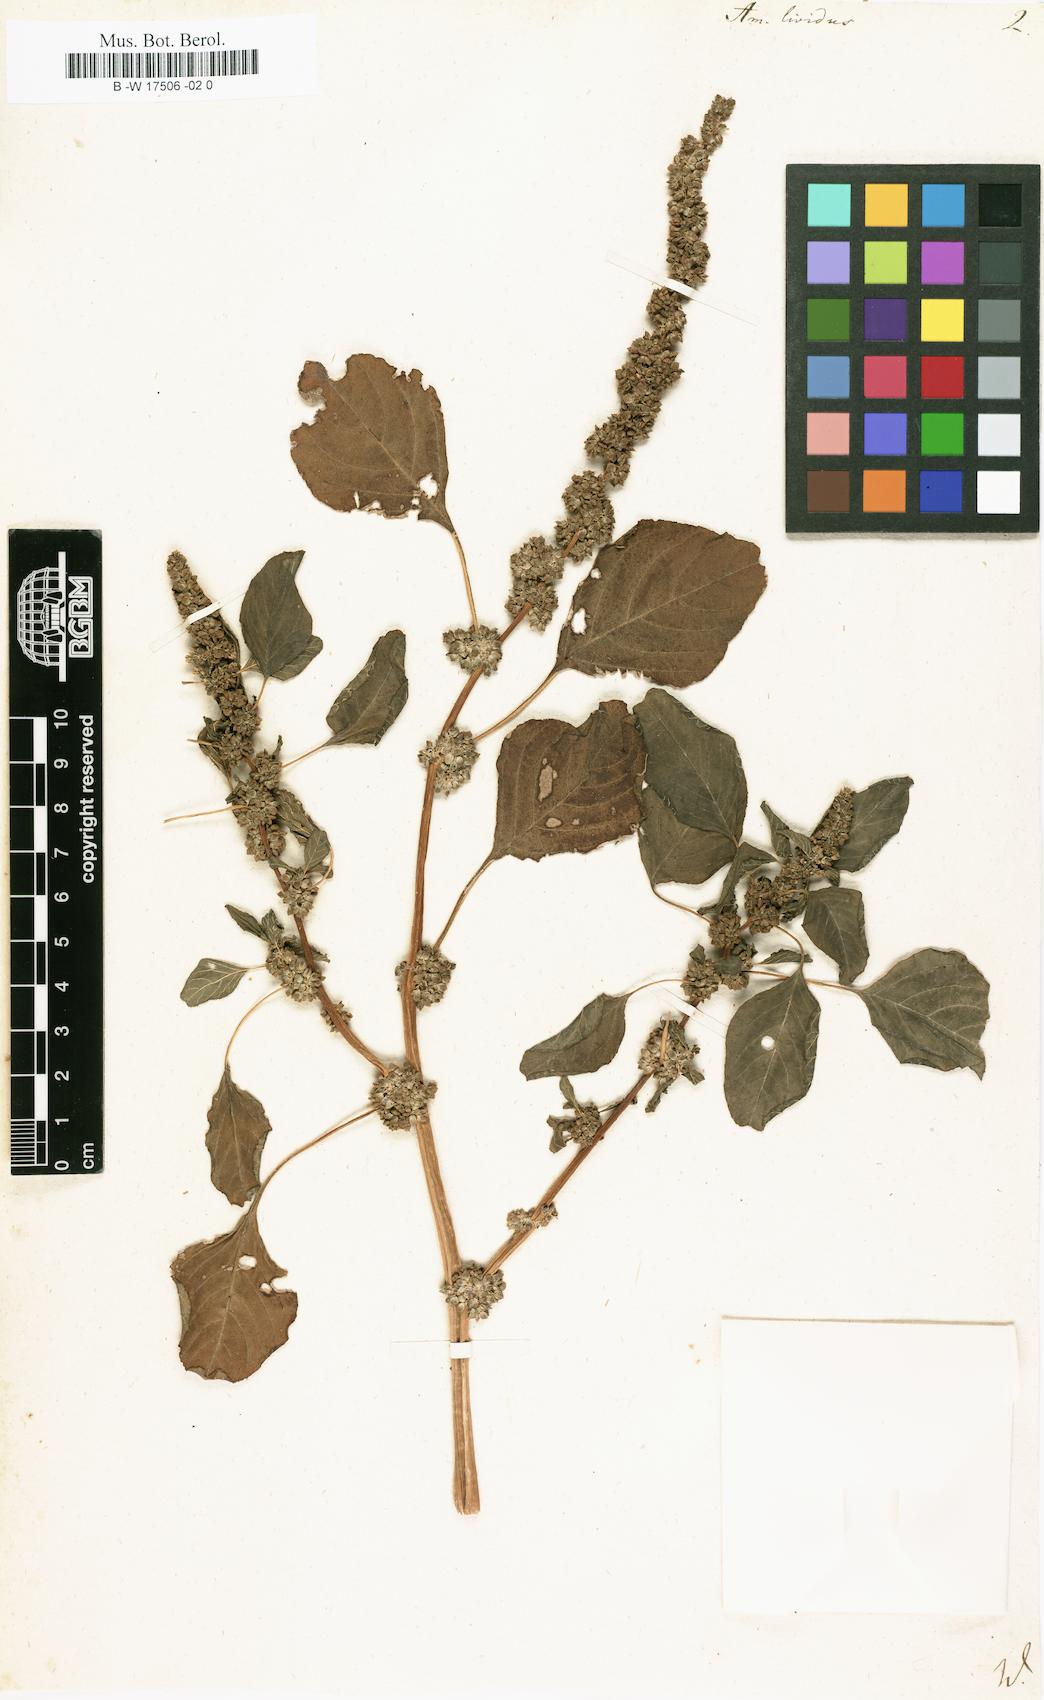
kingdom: Plantae
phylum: Tracheophyta
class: Magnoliopsida
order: Caryophyllales
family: Amaranthaceae
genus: Amaranthus
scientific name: Amaranthus blitum
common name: Purple amaranth
